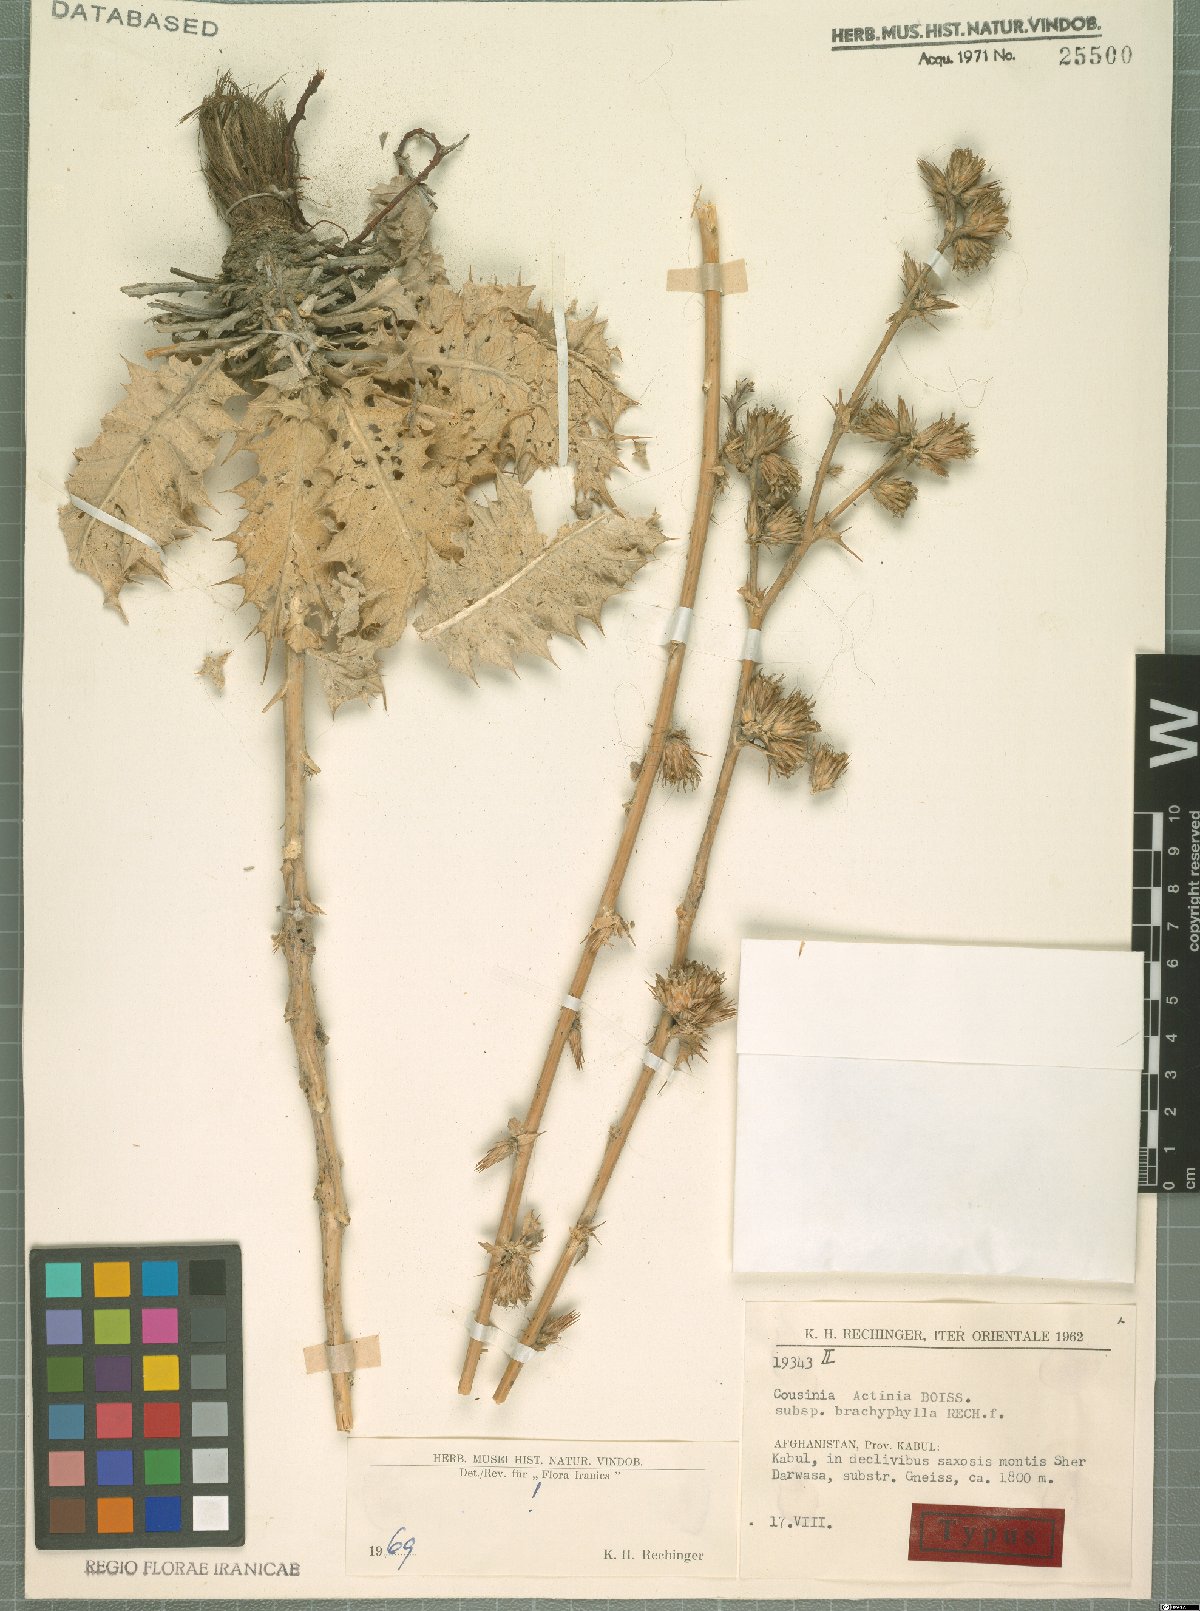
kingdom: Plantae
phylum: Tracheophyta
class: Magnoliopsida
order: Asterales
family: Asteraceae
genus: Cousinia
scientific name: Cousinia actinia
